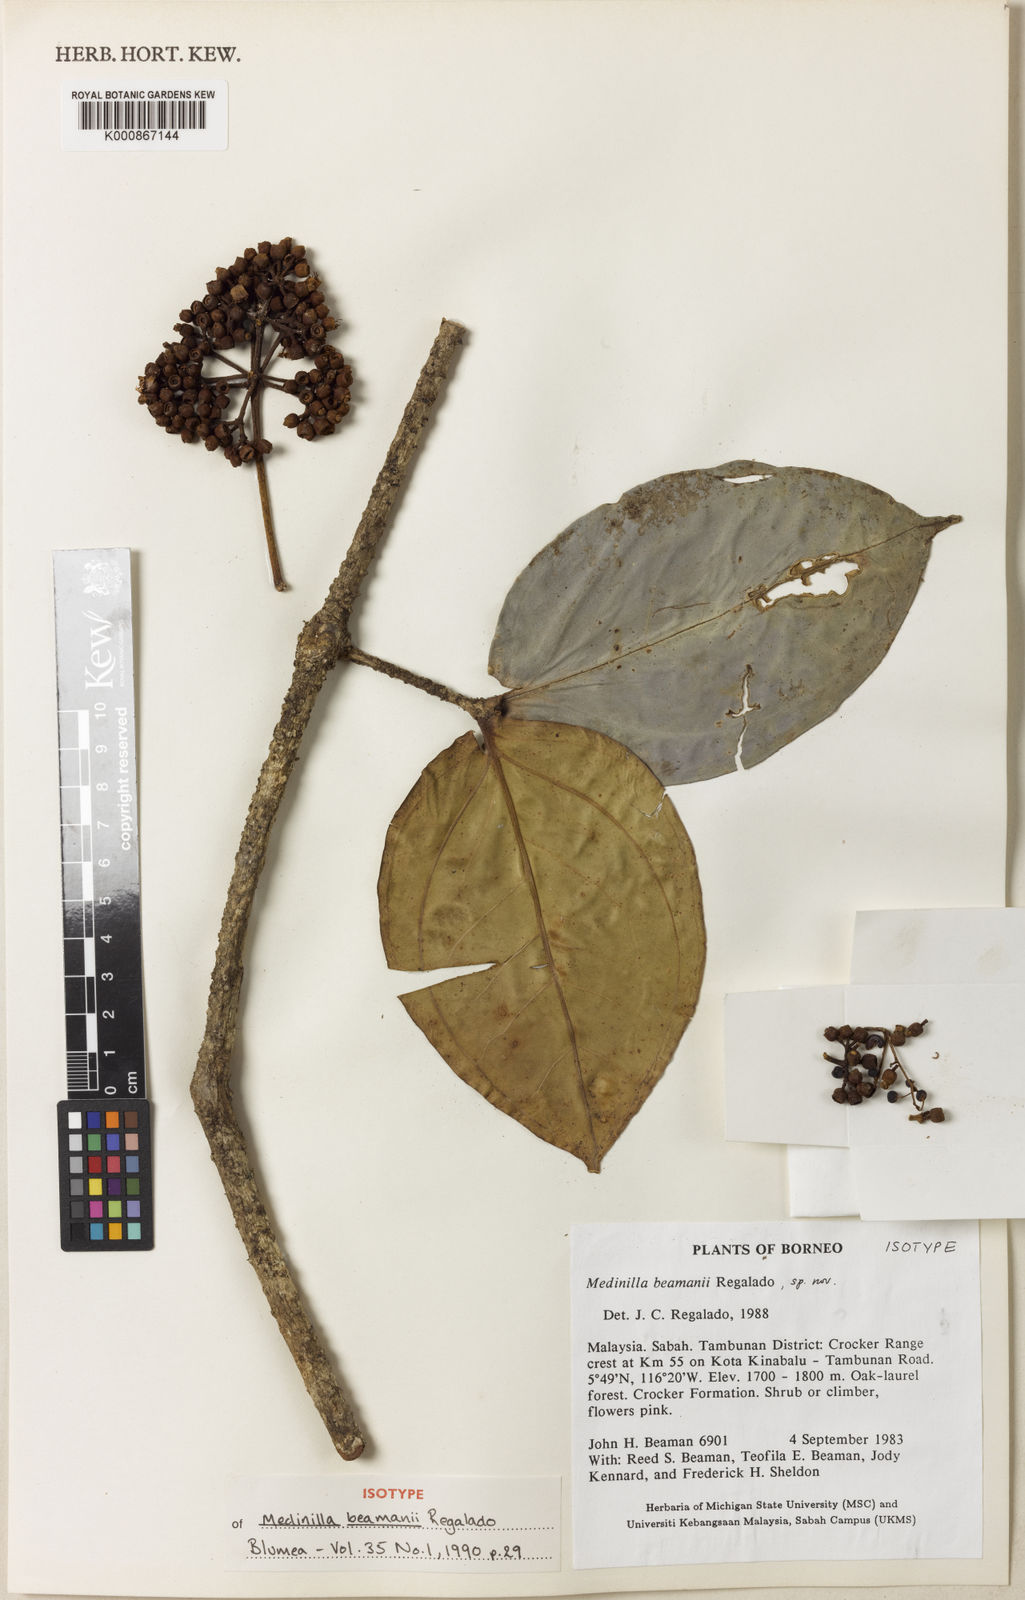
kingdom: Plantae
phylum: Tracheophyta
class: Magnoliopsida
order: Myrtales
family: Melastomataceae
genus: Medinilla
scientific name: Medinilla beamanii
